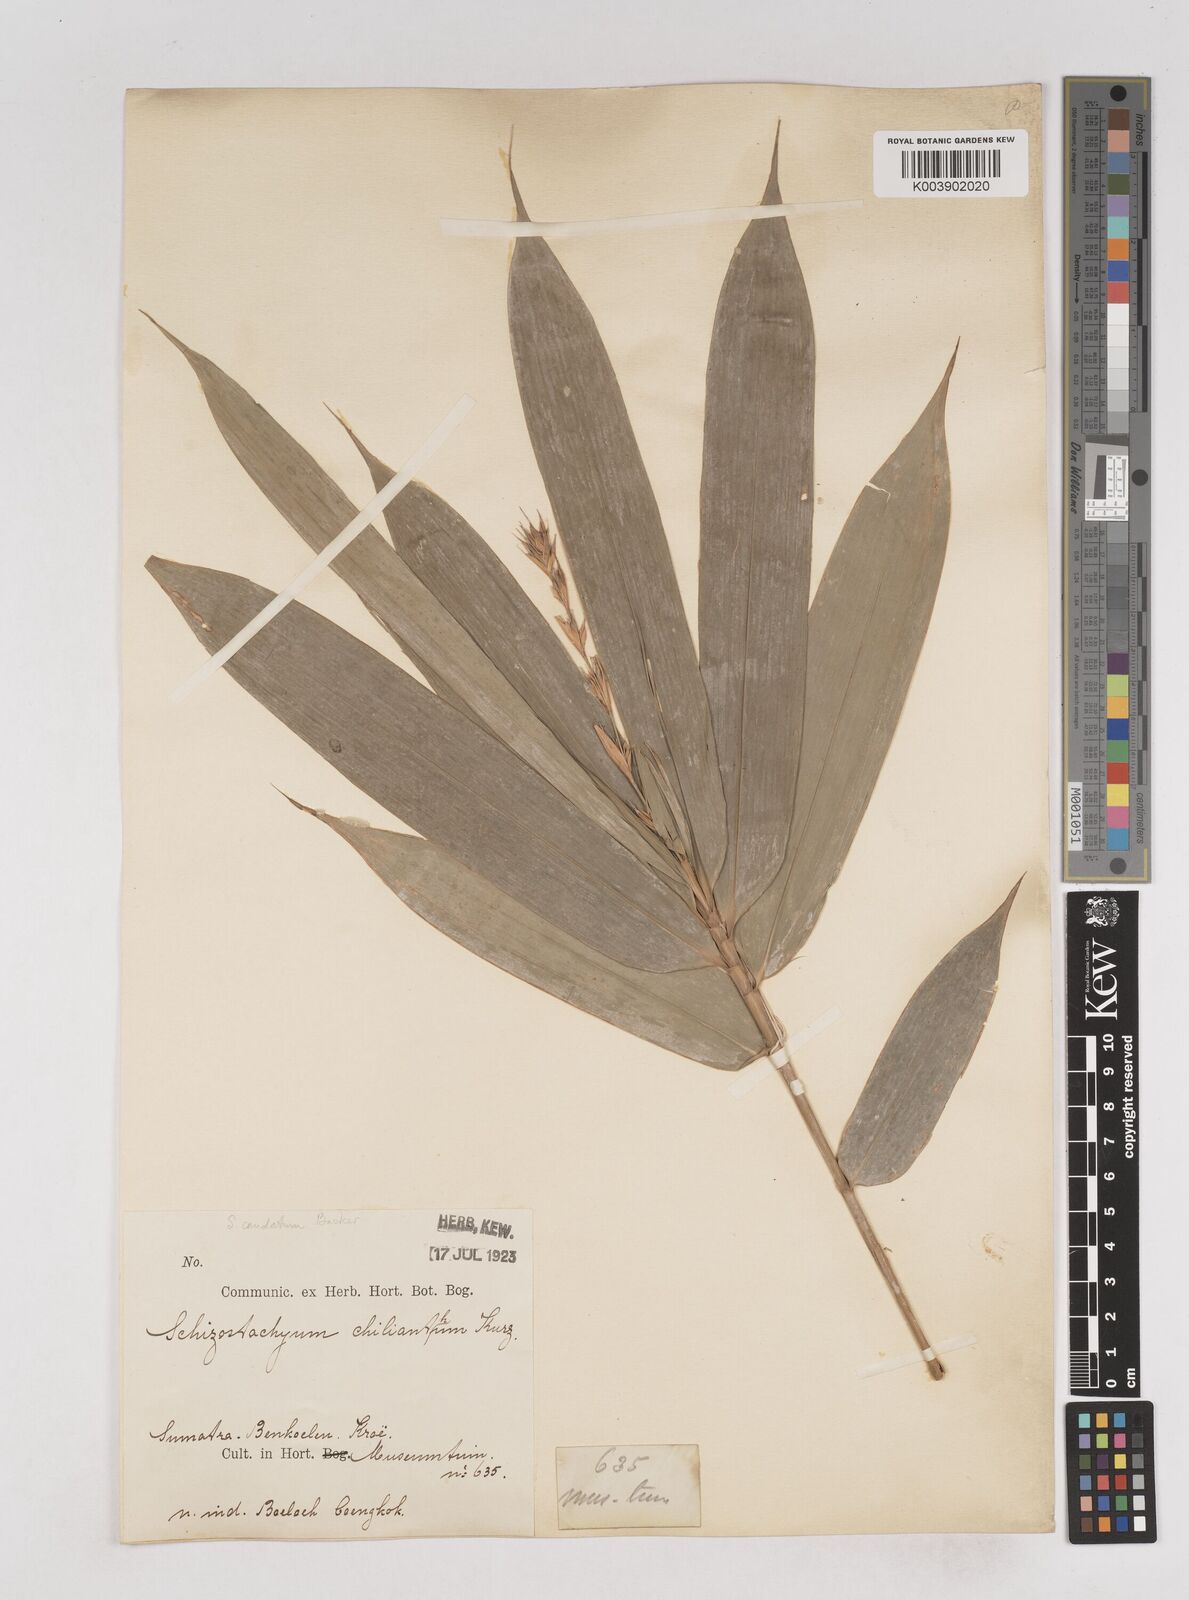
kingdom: Plantae
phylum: Tracheophyta
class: Liliopsida
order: Poales
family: Poaceae
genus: Schizostachyum
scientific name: Schizostachyum caudatum
